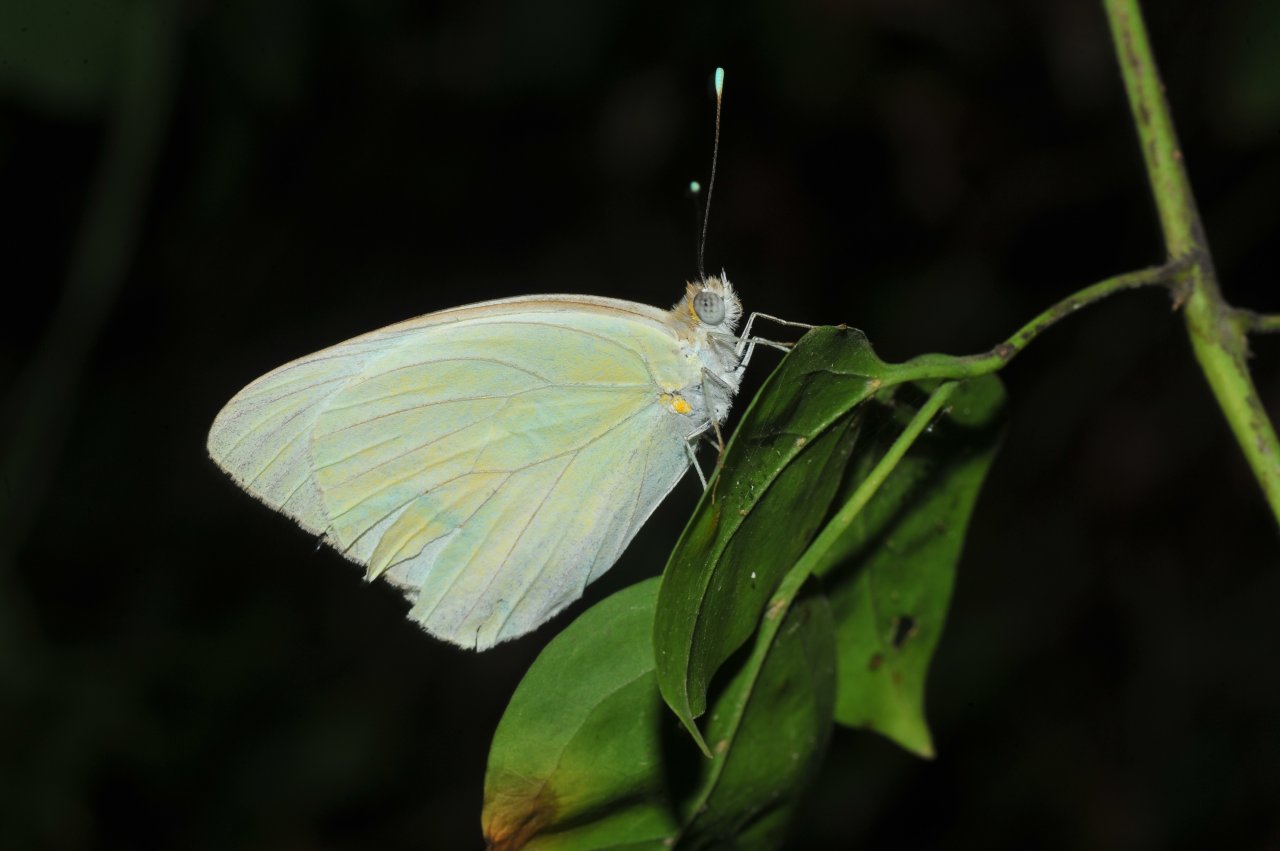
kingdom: Animalia
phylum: Arthropoda
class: Insecta
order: Lepidoptera
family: Pieridae
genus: Ascia
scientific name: Ascia monuste
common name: Great Southern White
